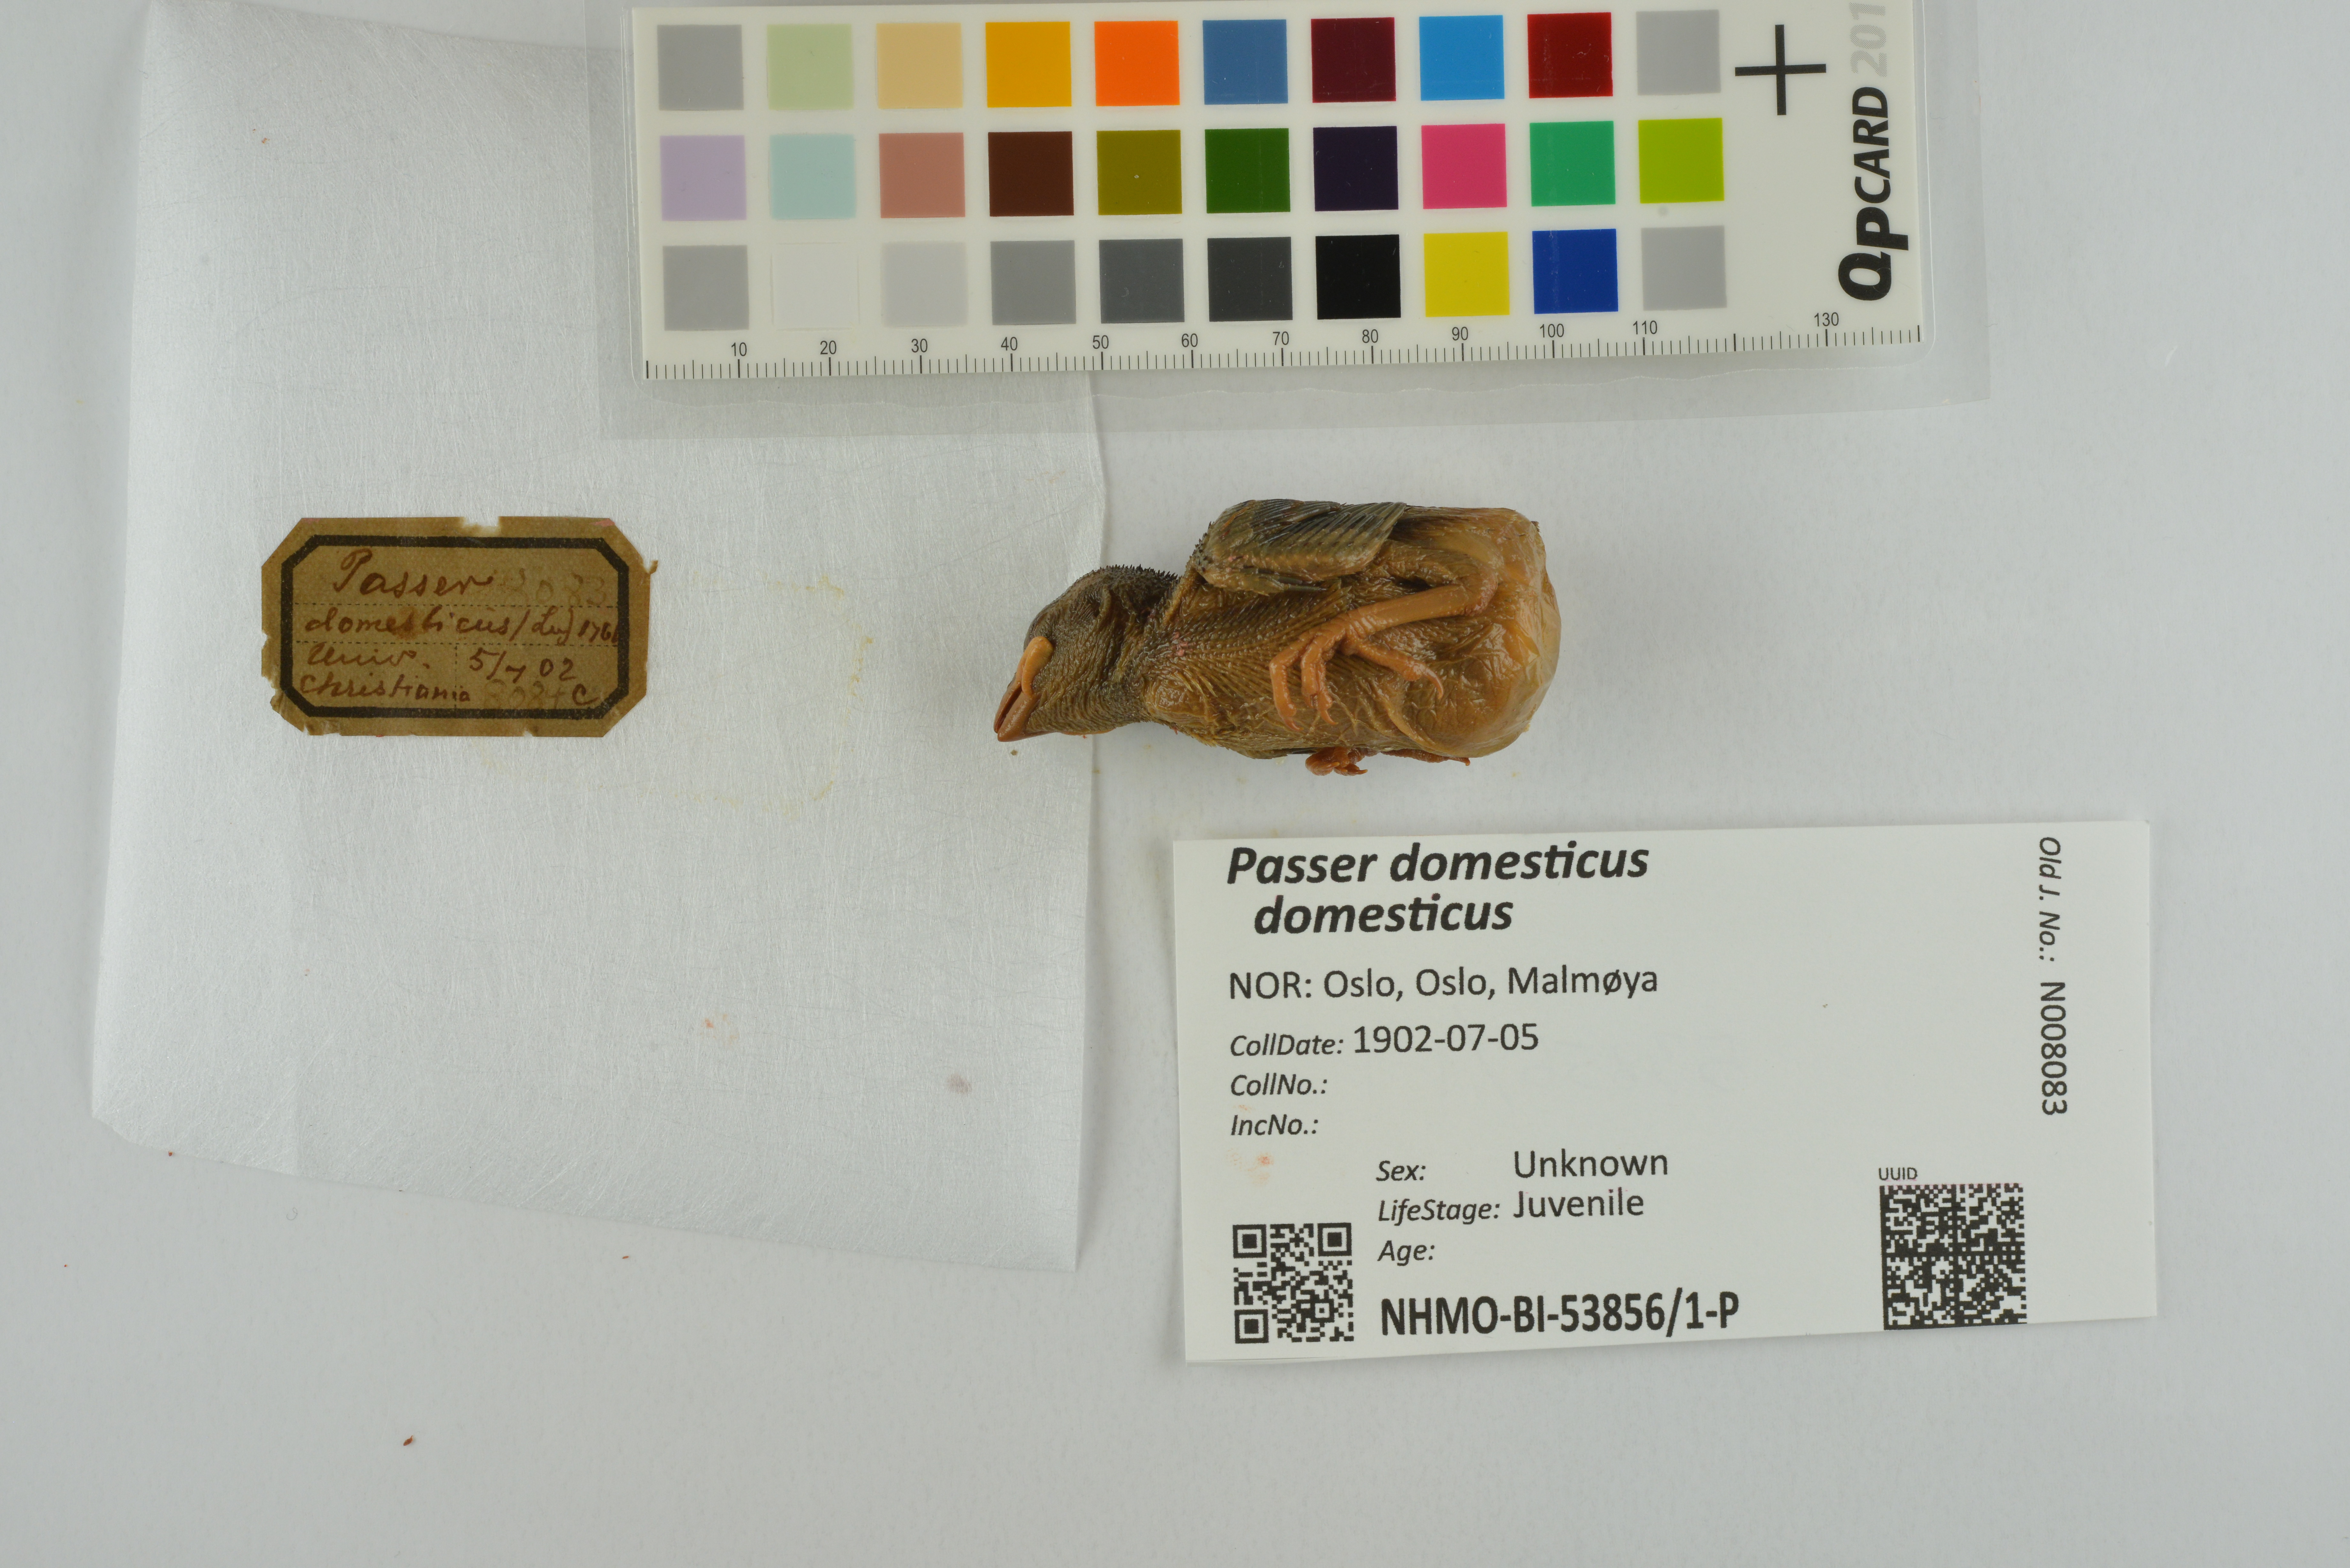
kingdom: Animalia
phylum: Chordata
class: Aves
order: Passeriformes
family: Passeridae
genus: Passer
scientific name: Passer domesticus
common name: House sparrow
